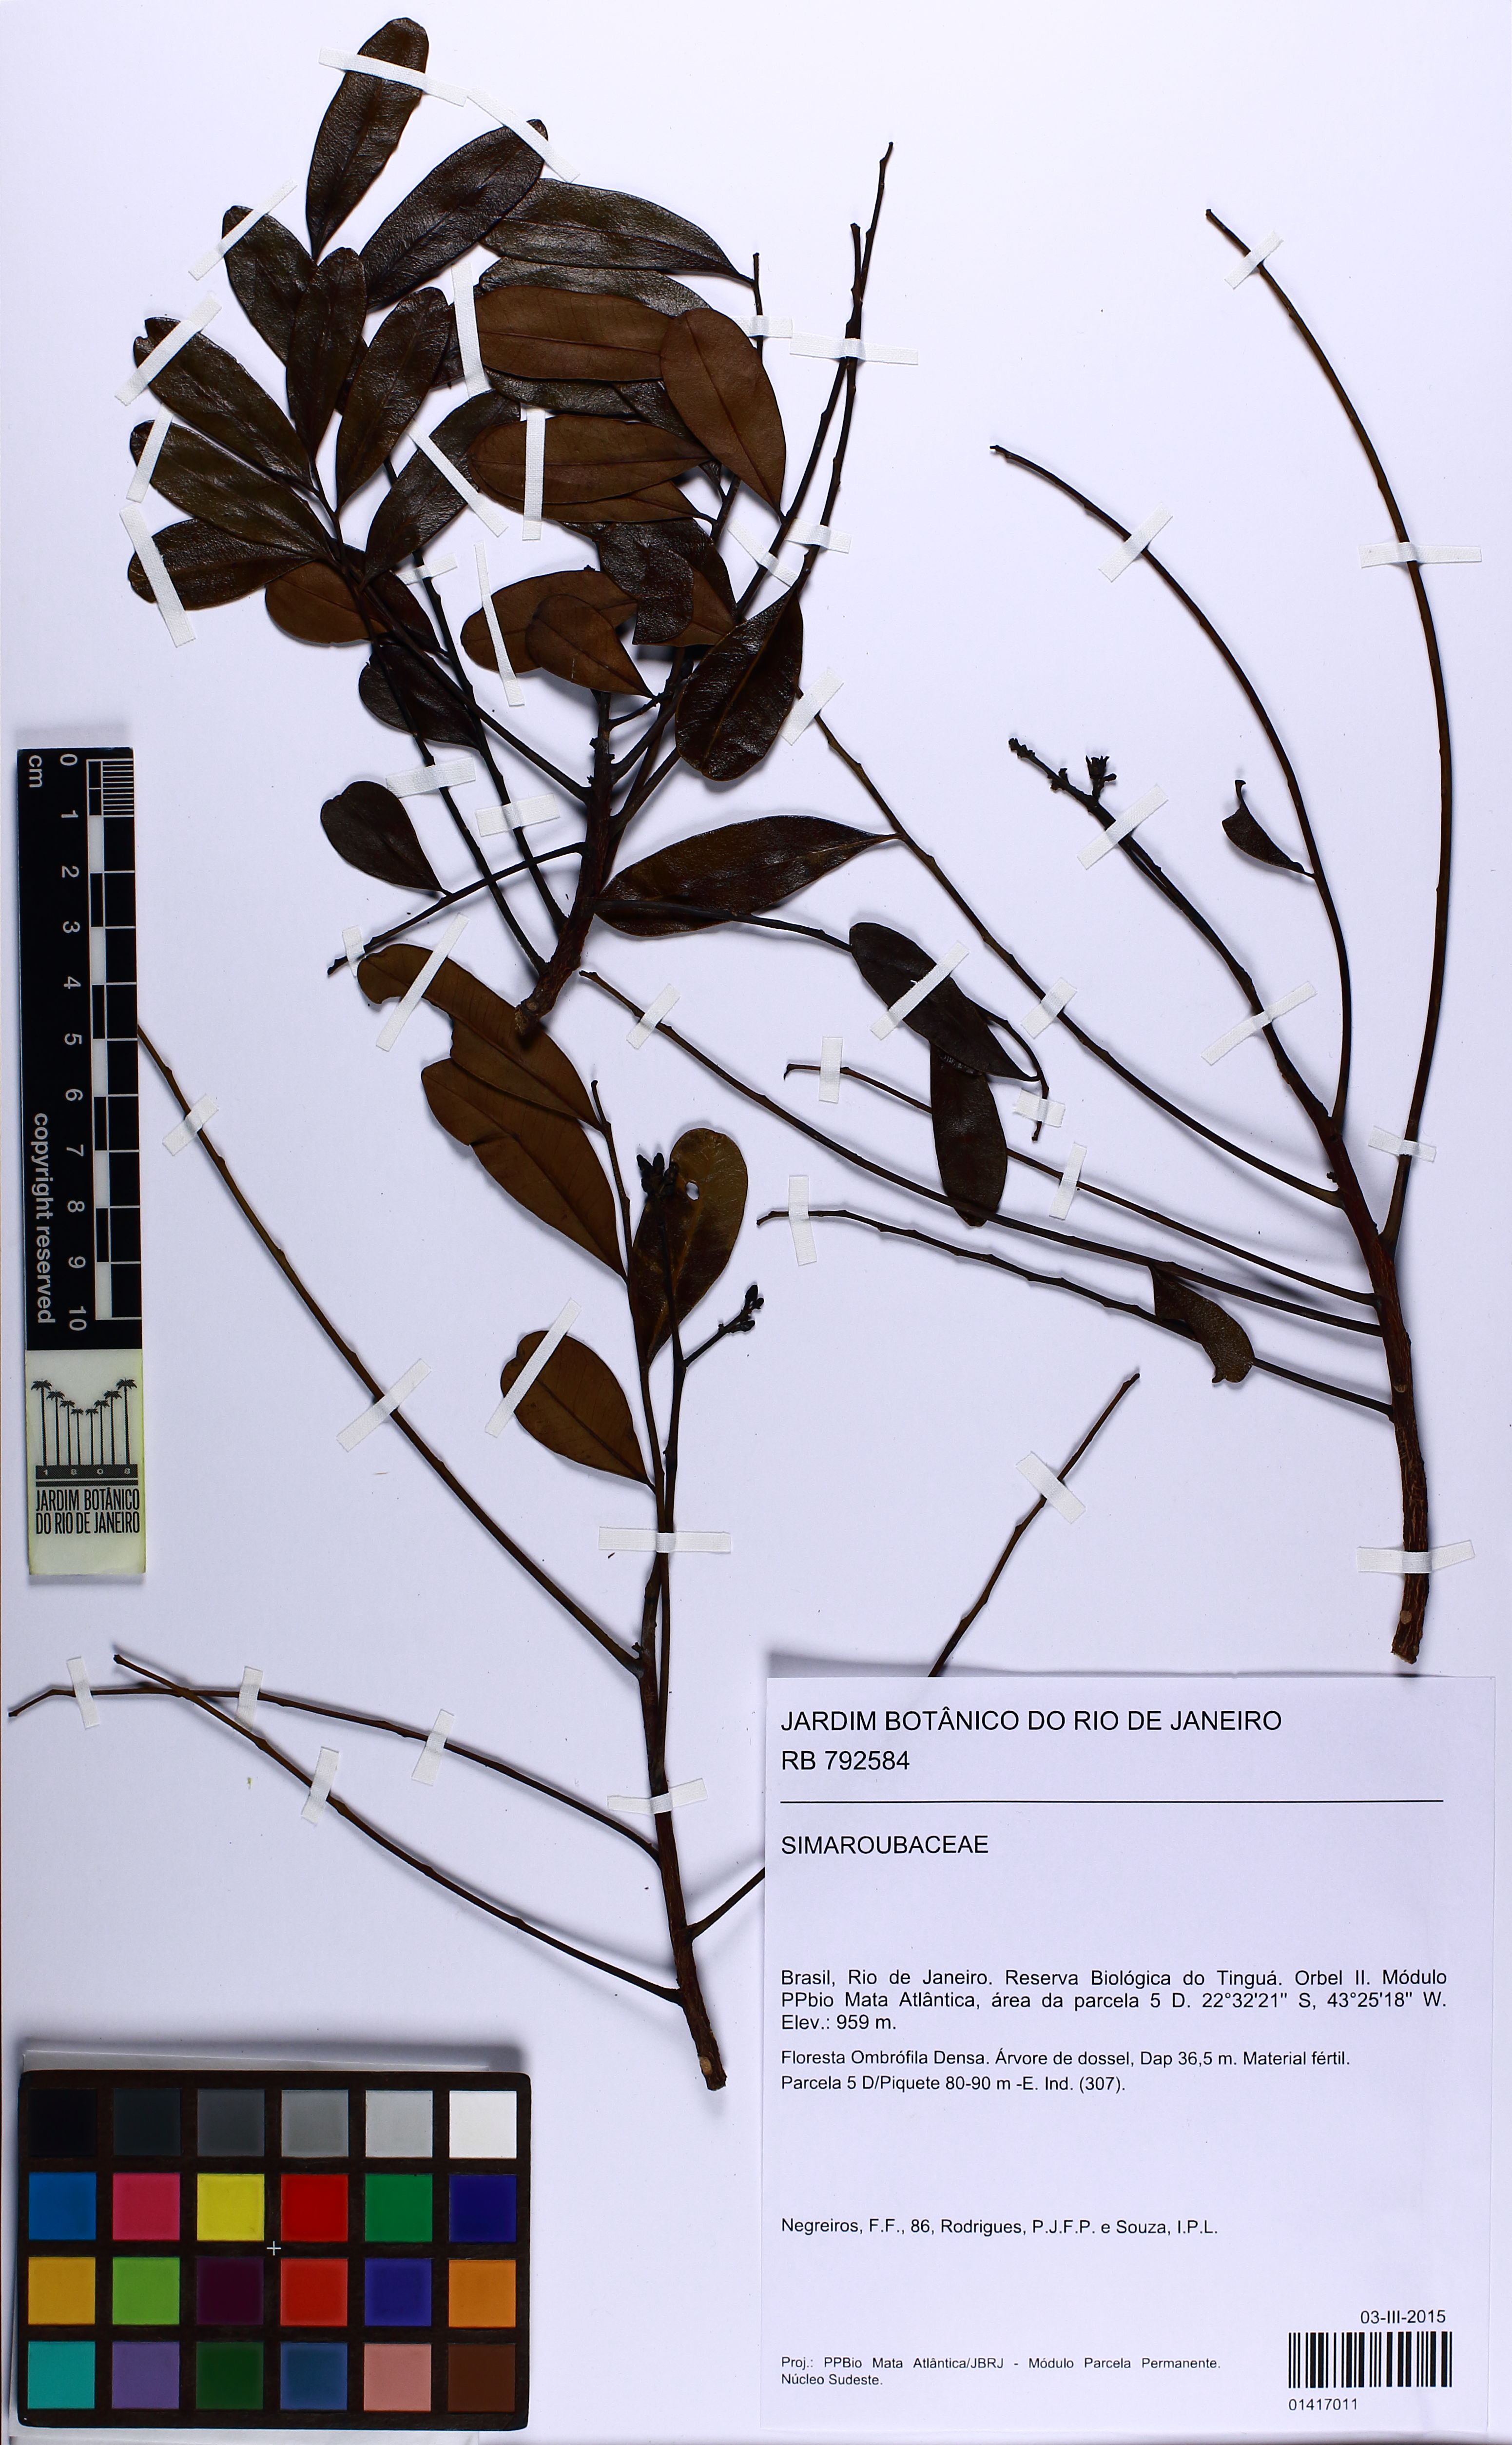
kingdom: Plantae
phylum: Tracheophyta
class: Magnoliopsida
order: Sapindales
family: Simaroubaceae
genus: Simarouba
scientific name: Simarouba amara
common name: Bitterwood
